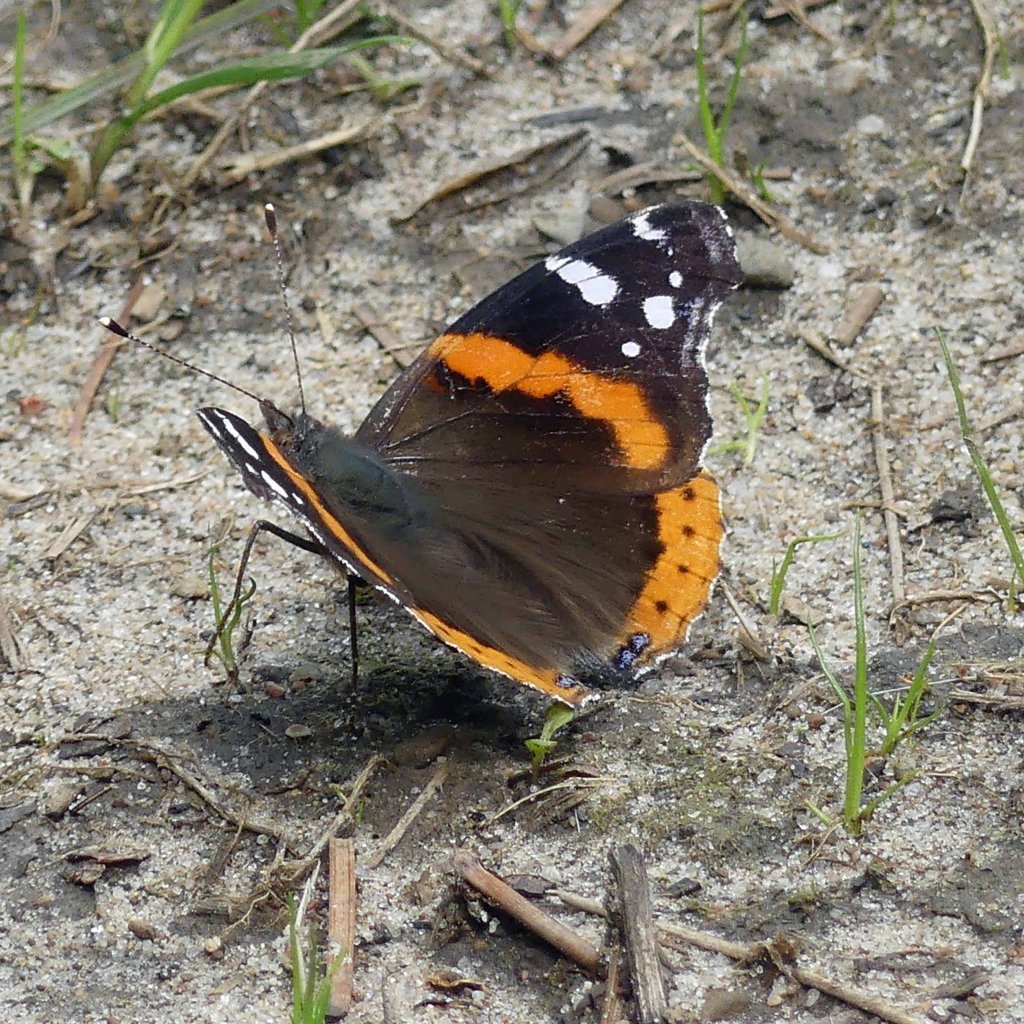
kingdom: Animalia
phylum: Arthropoda
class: Insecta
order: Lepidoptera
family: Nymphalidae
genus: Vanessa
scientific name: Vanessa atalanta
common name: Red Admiral
